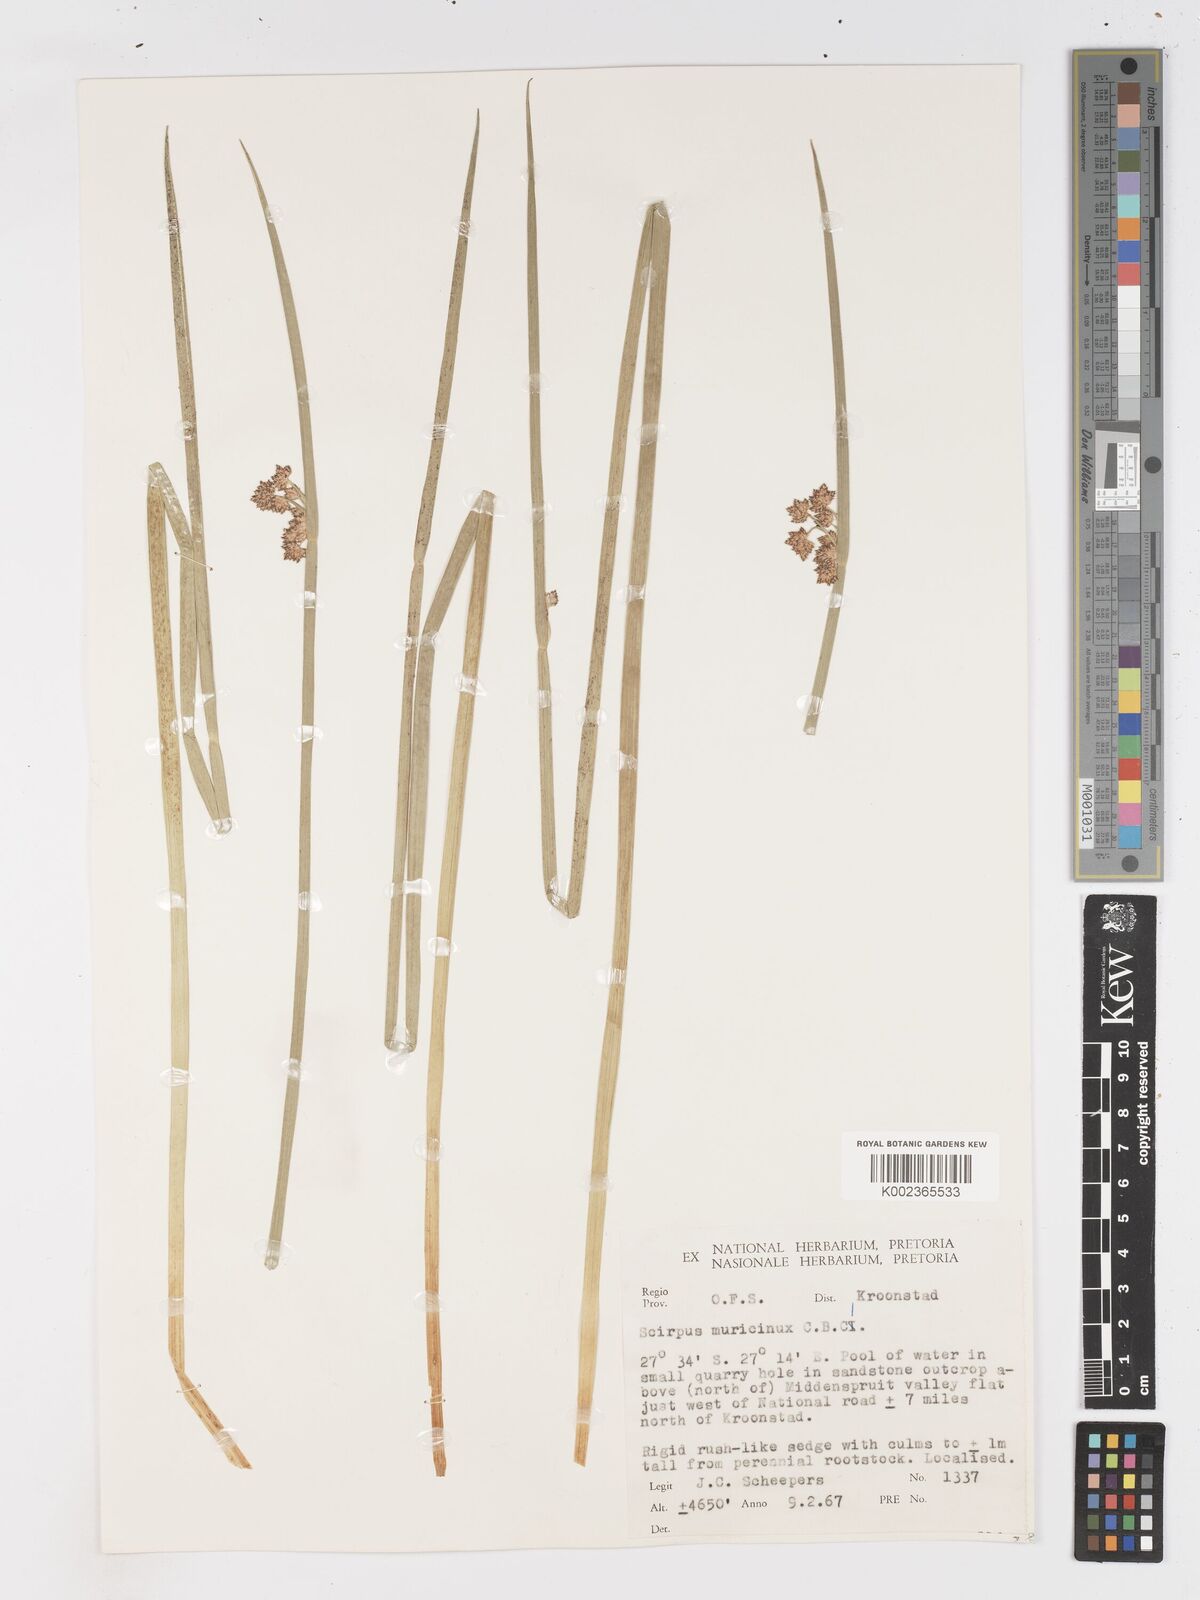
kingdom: Plantae
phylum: Tracheophyta
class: Liliopsida
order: Poales
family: Cyperaceae
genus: Schoenoplectiella
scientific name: Schoenoplectiella muricinux
